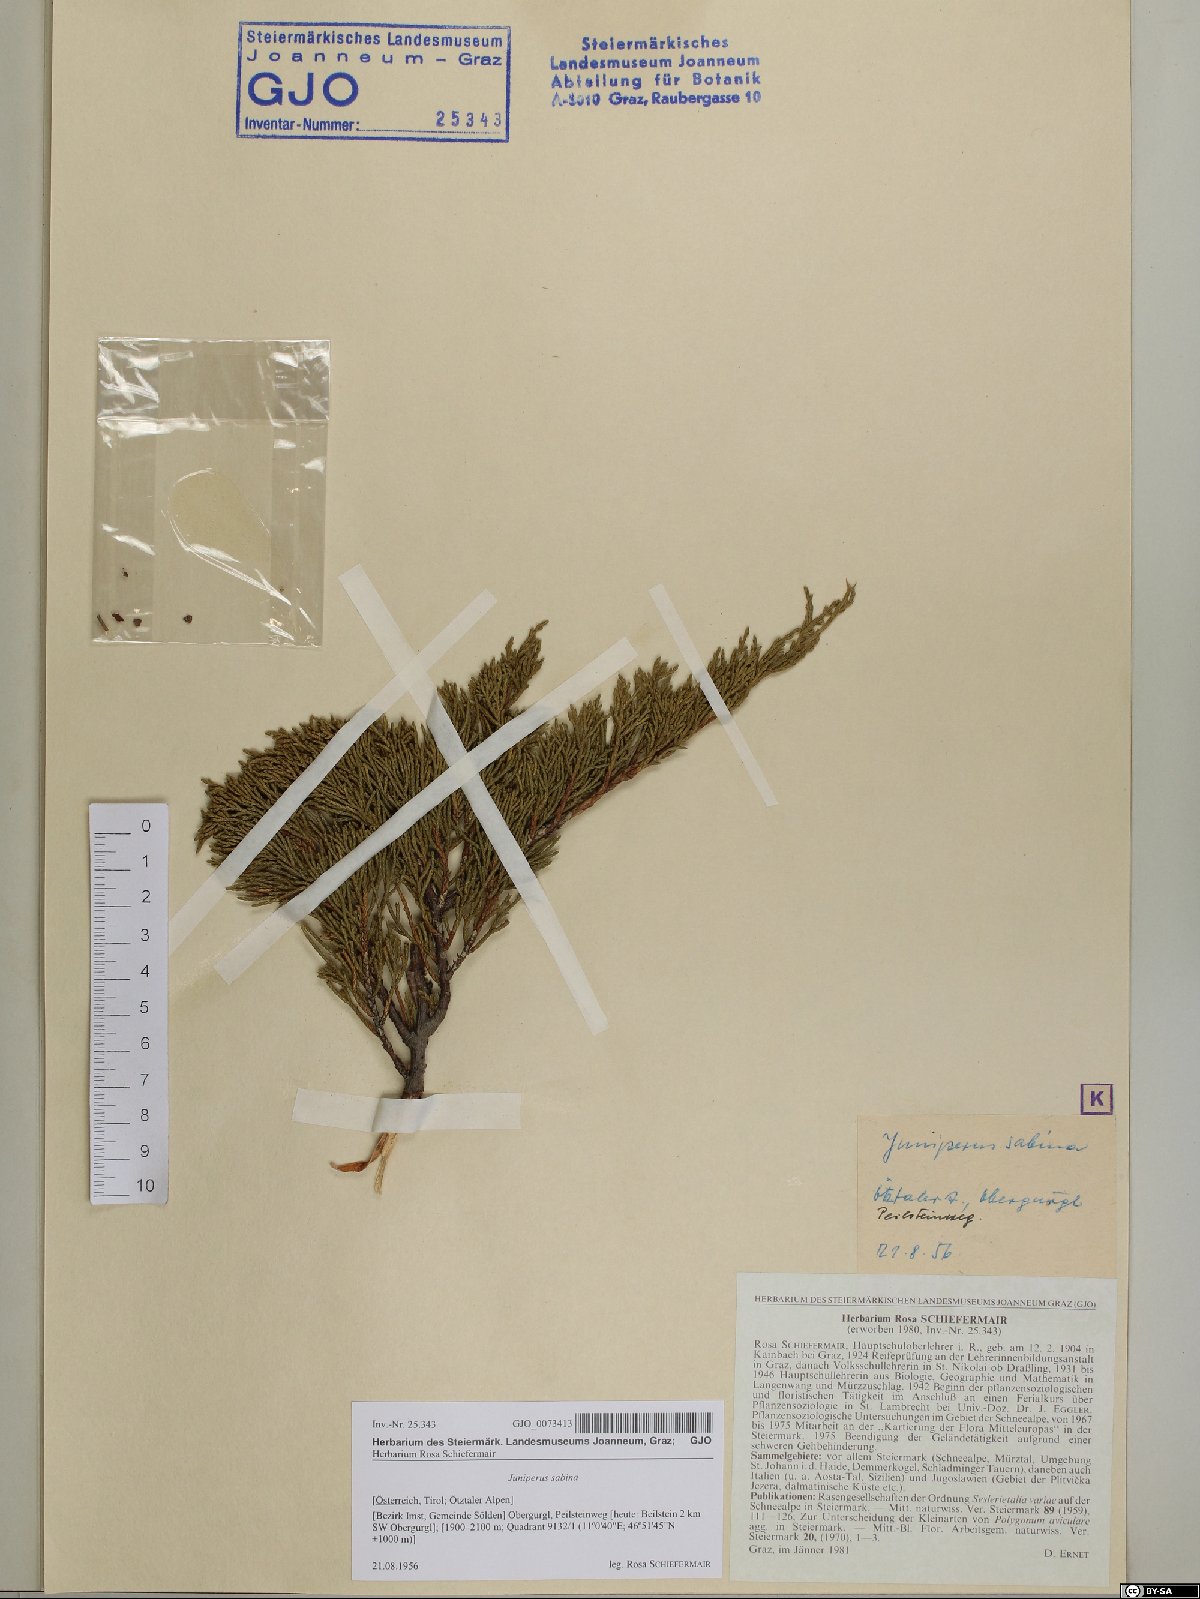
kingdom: Plantae
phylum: Tracheophyta
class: Pinopsida
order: Pinales
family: Cupressaceae
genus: Juniperus
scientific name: Juniperus sabina
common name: Savin
